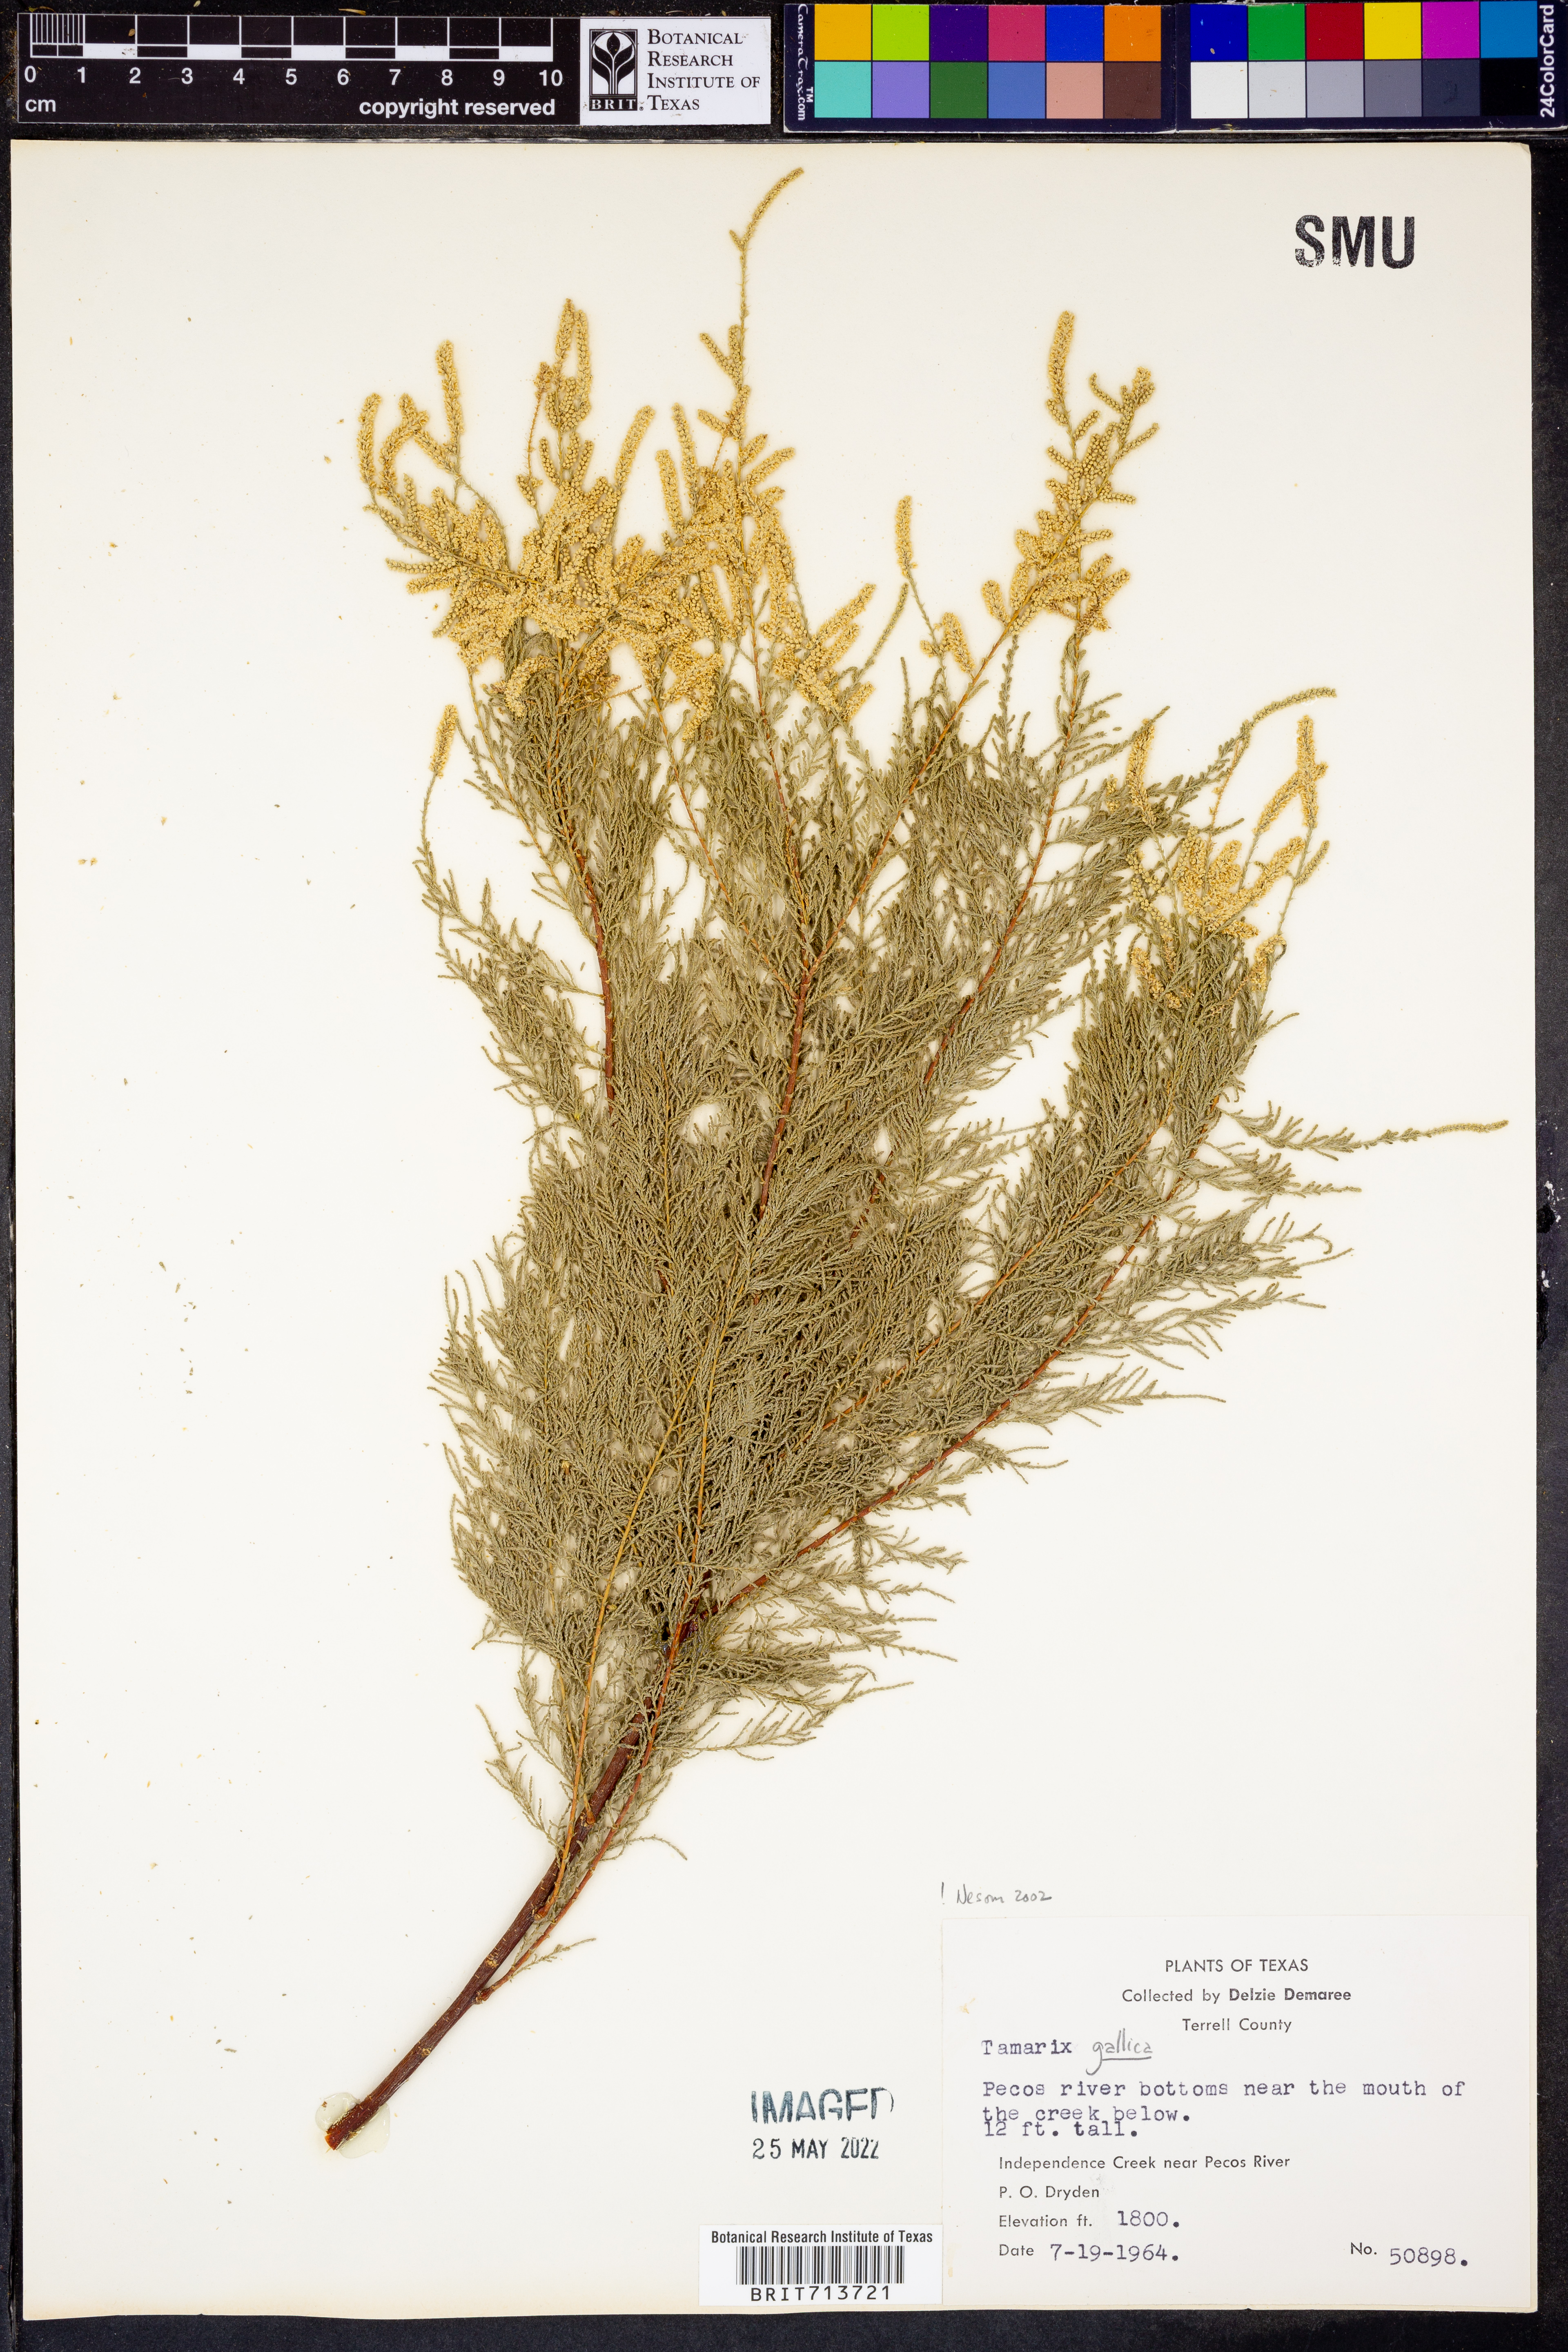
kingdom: Plantae
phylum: Tracheophyta
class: Magnoliopsida
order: Caryophyllales
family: Tamaricaceae
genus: Tamarix
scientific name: Tamarix gallica
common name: Tamarisk
